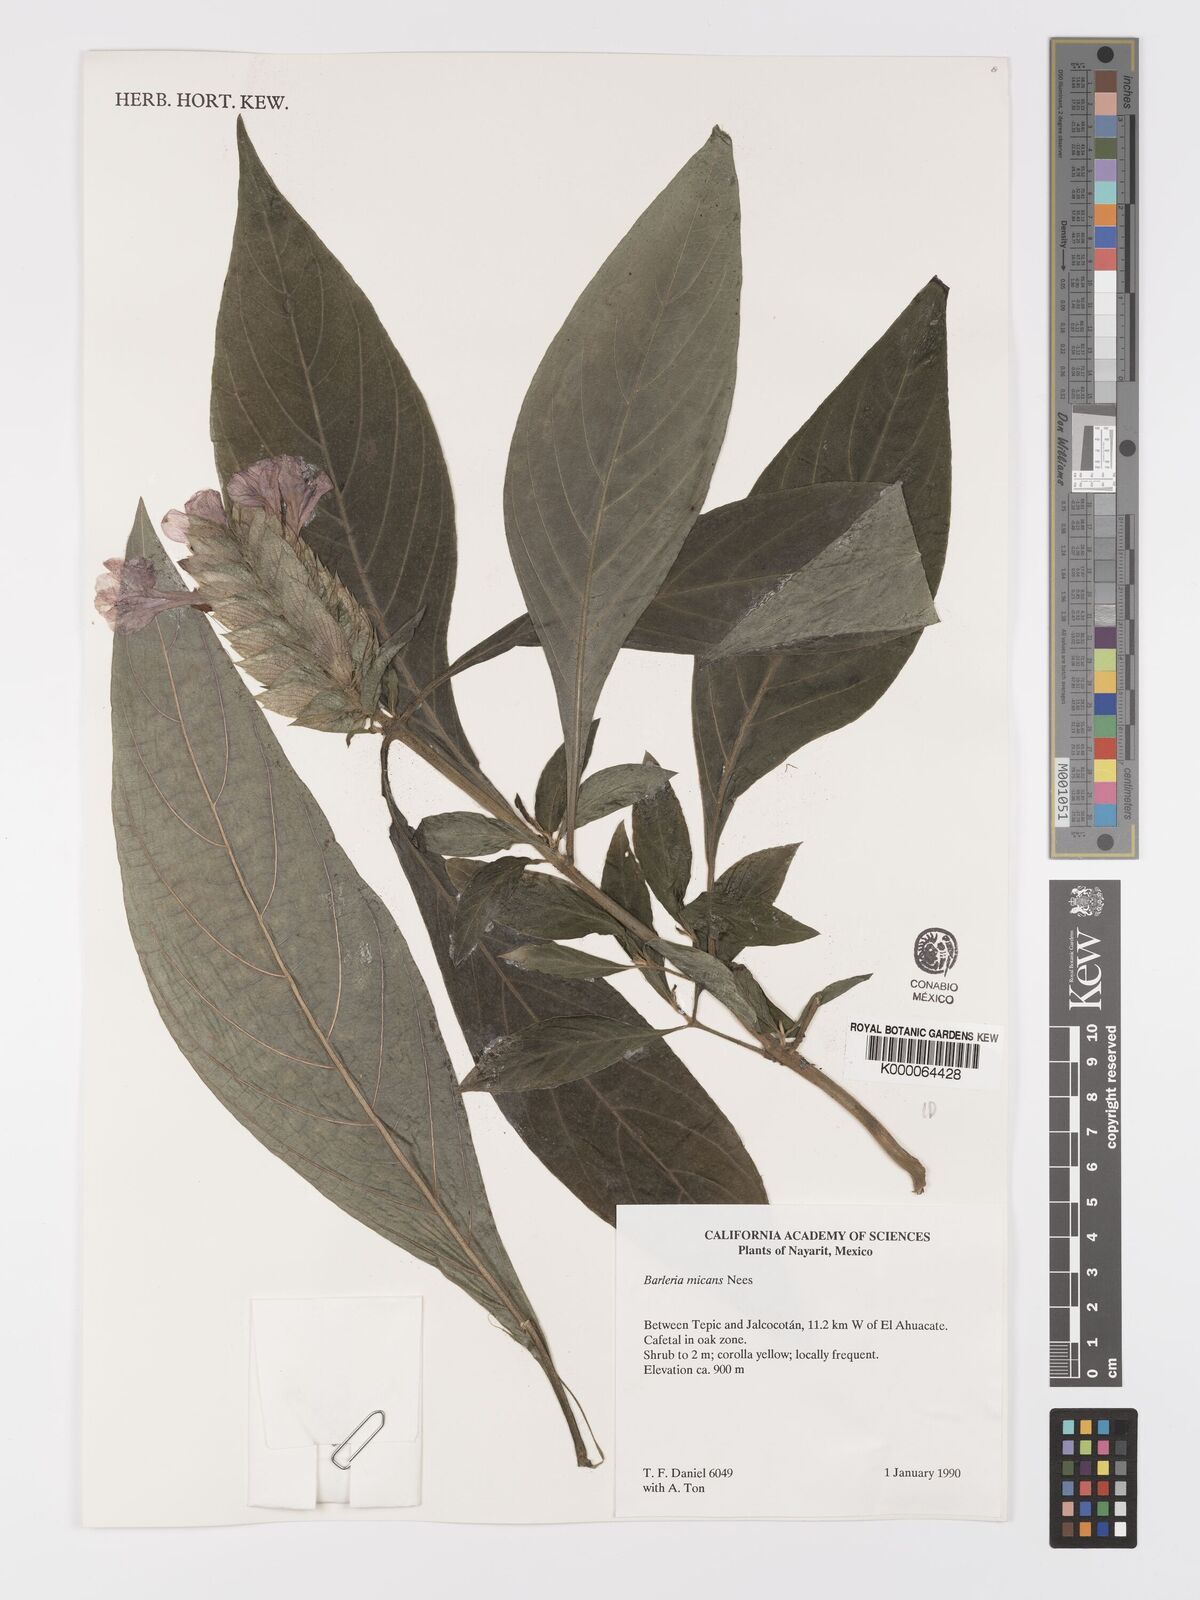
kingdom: Plantae
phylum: Tracheophyta
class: Magnoliopsida
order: Lamiales
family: Acanthaceae
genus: Barleria
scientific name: Barleria oenotheroides
